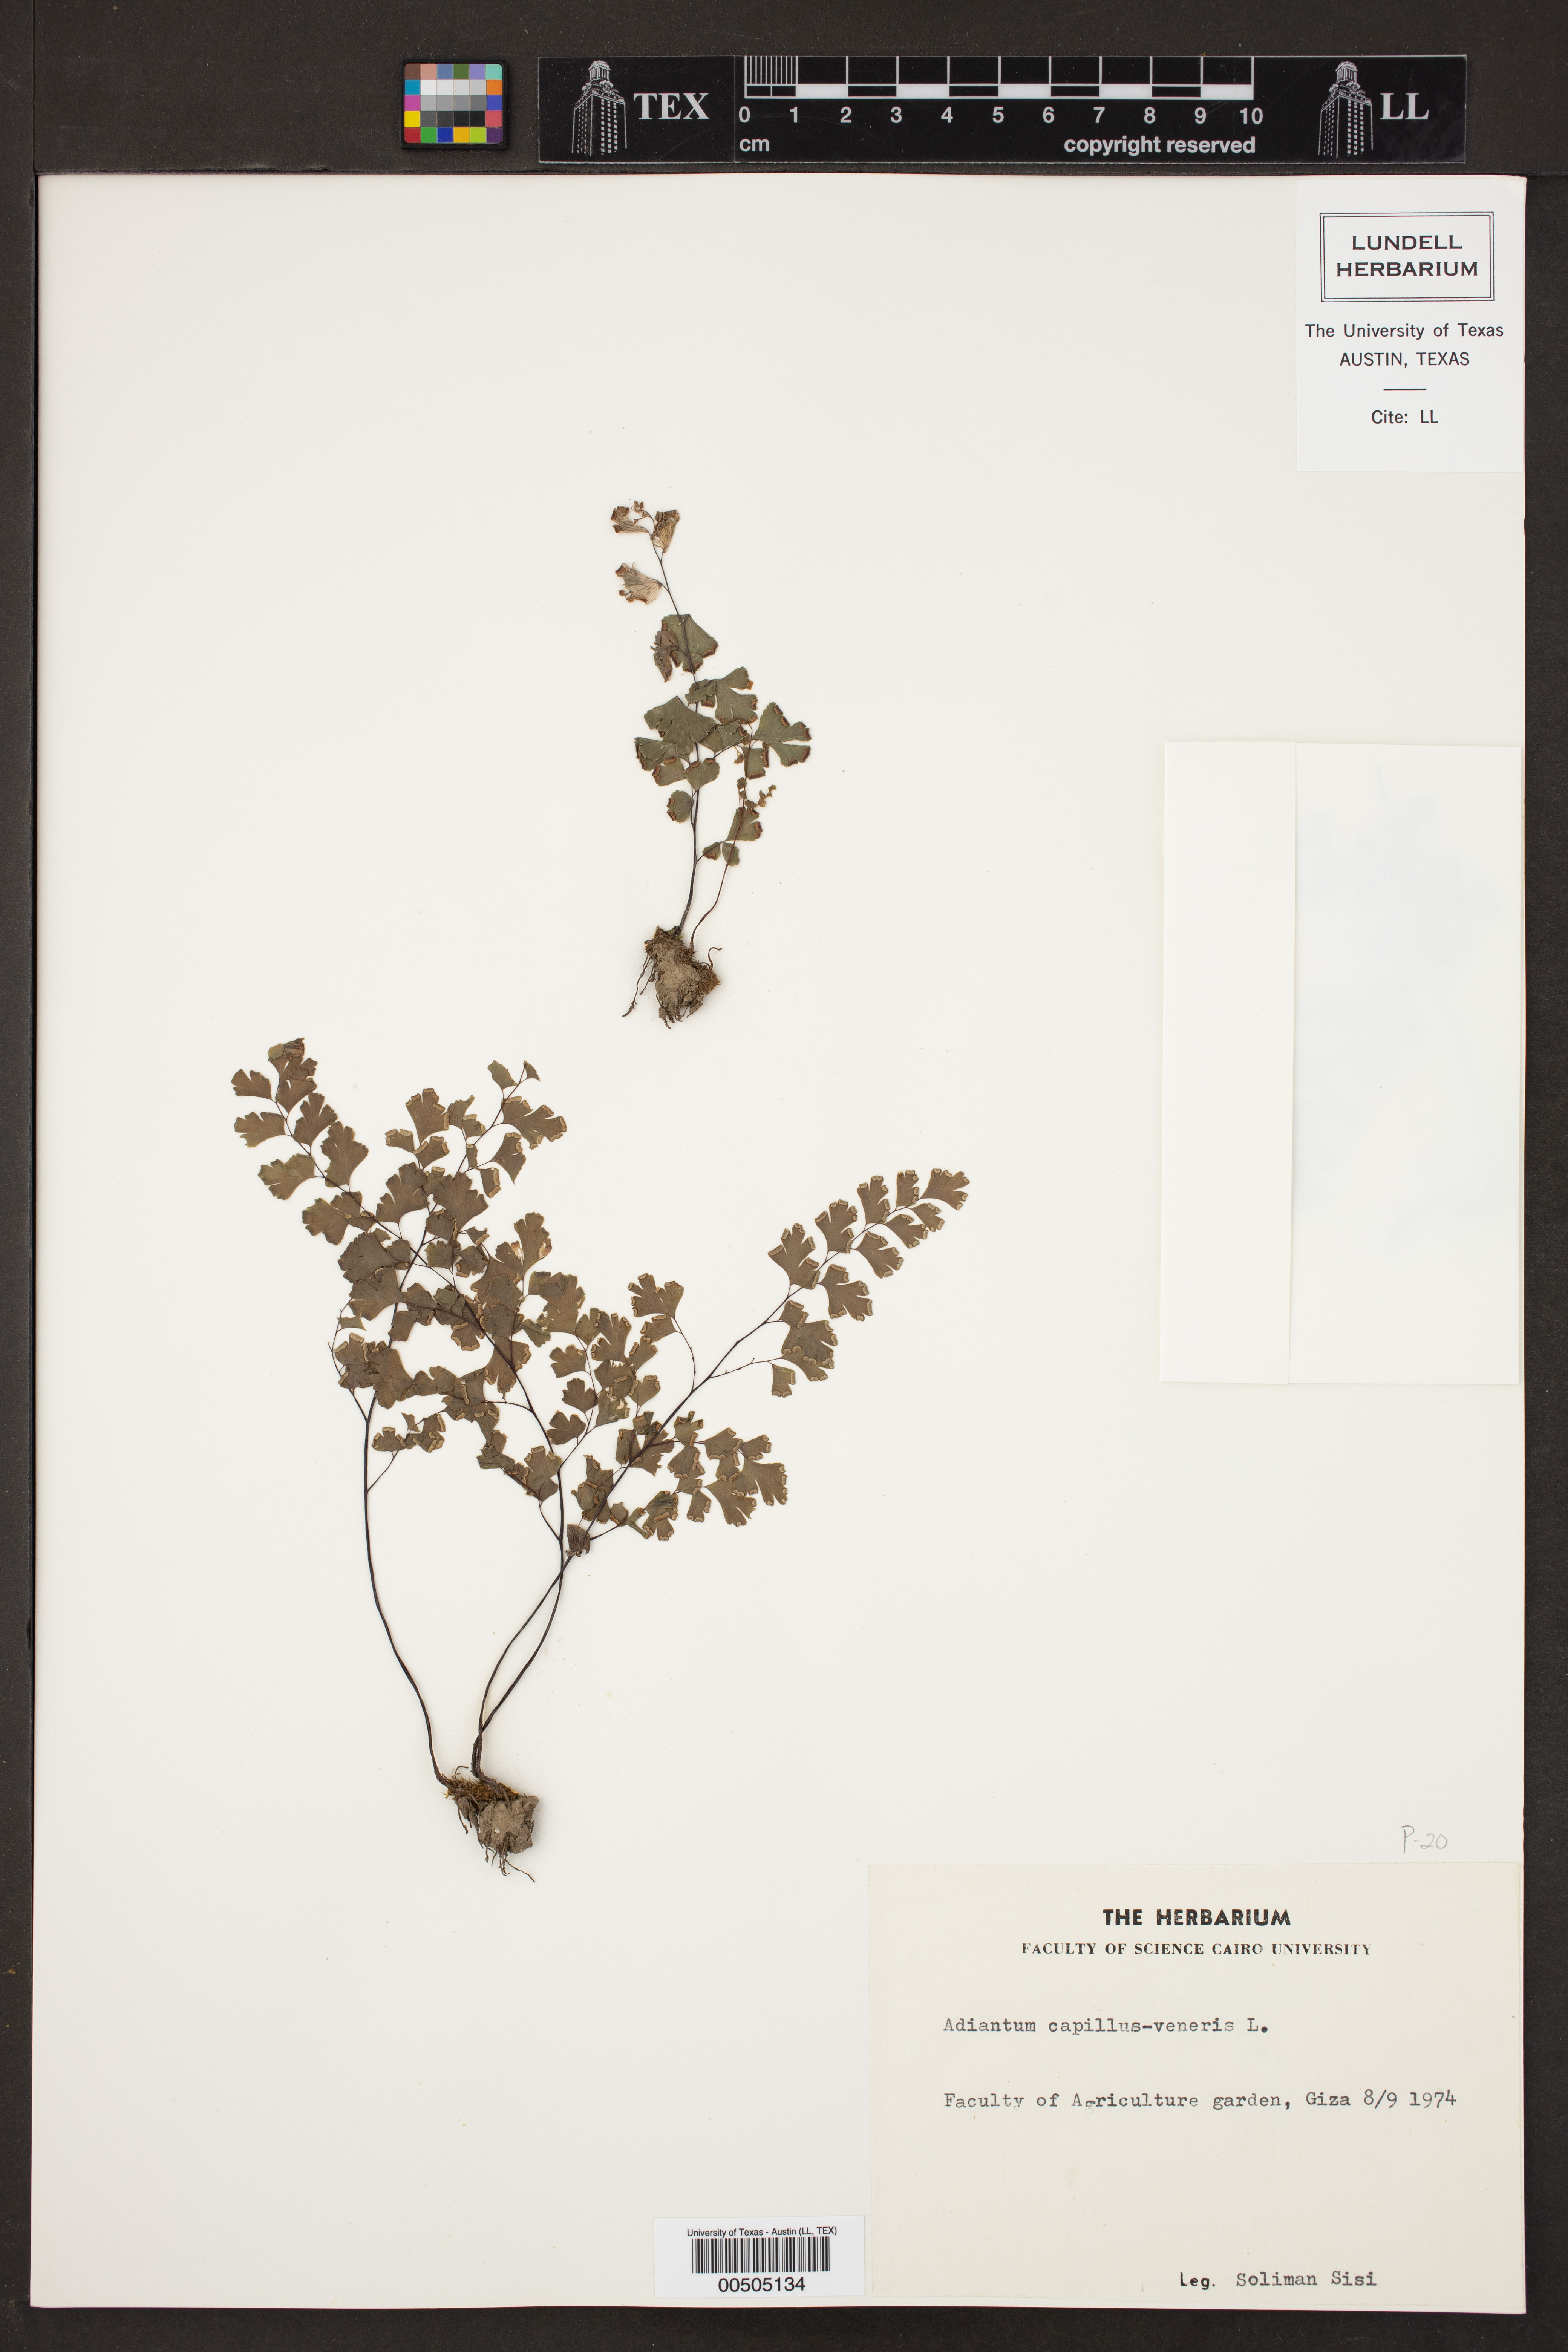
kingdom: Plantae
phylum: Tracheophyta
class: Polypodiopsida
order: Polypodiales
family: Pteridaceae
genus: Adiantum
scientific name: Adiantum capillus-veneris
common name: Maidenhair fern
